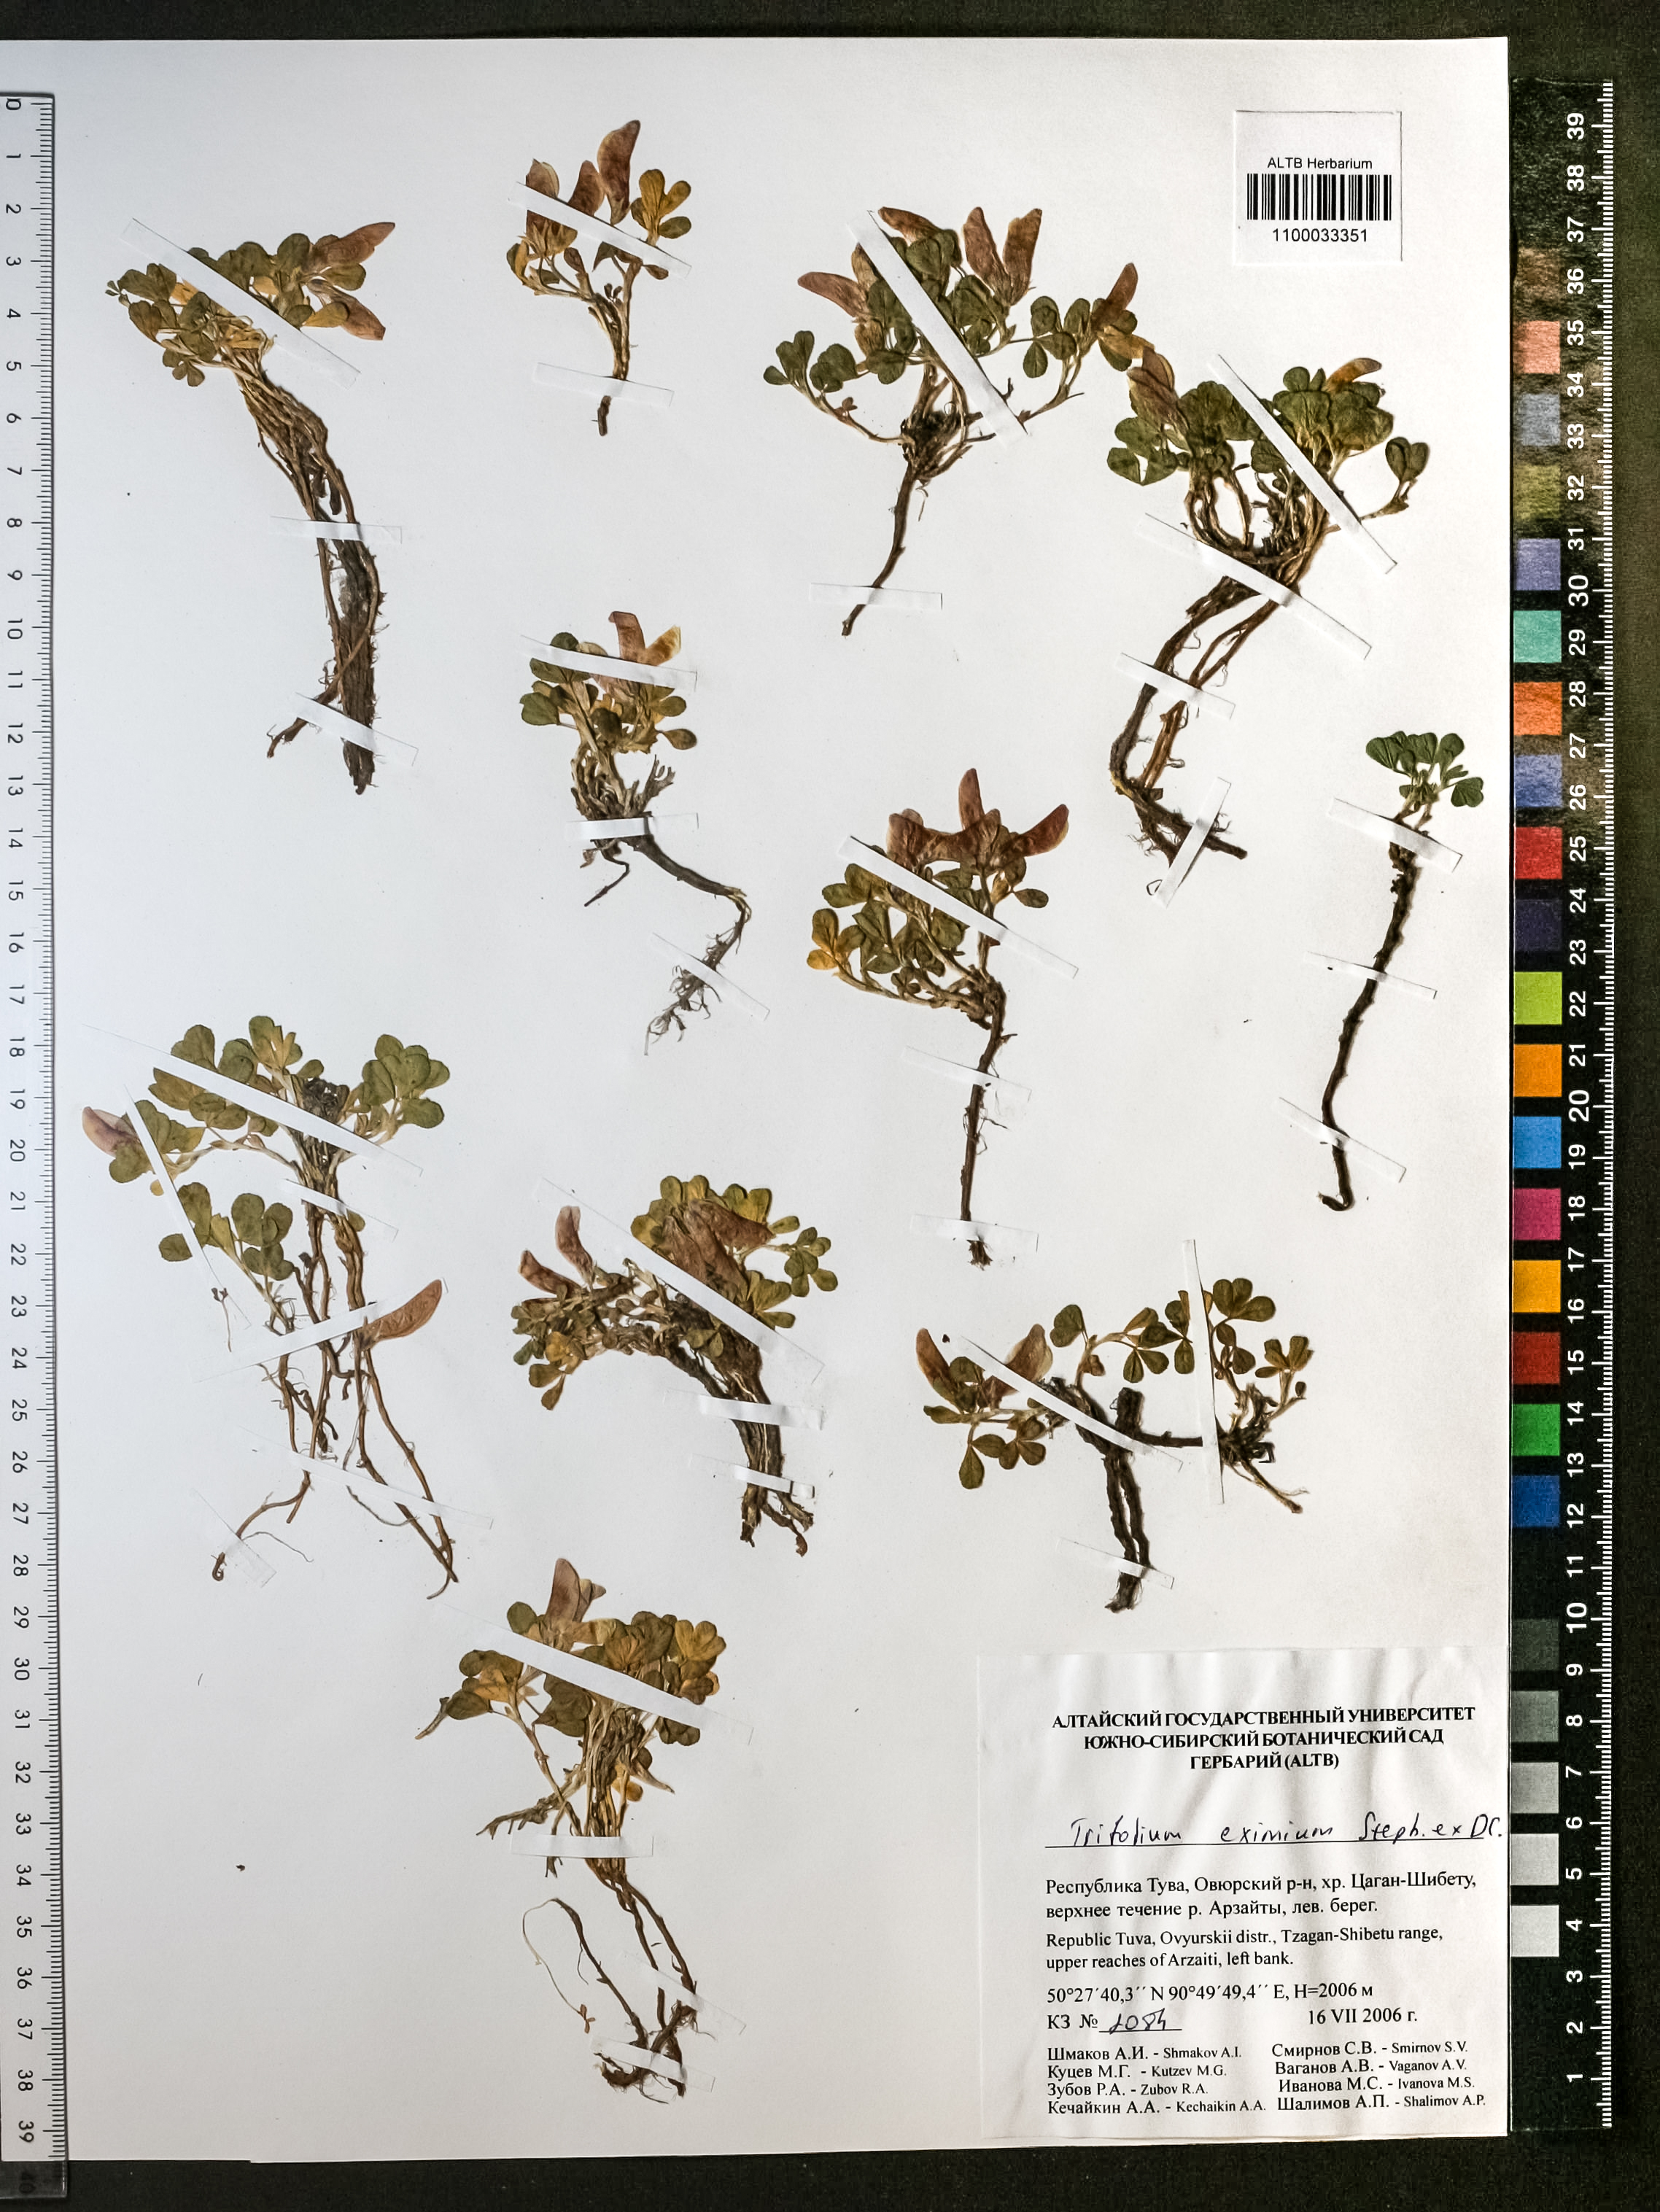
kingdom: Plantae
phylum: Tracheophyta
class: Magnoliopsida
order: Fabales
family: Fabaceae
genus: Trifolium
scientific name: Trifolium eximium
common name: Excellent clover
